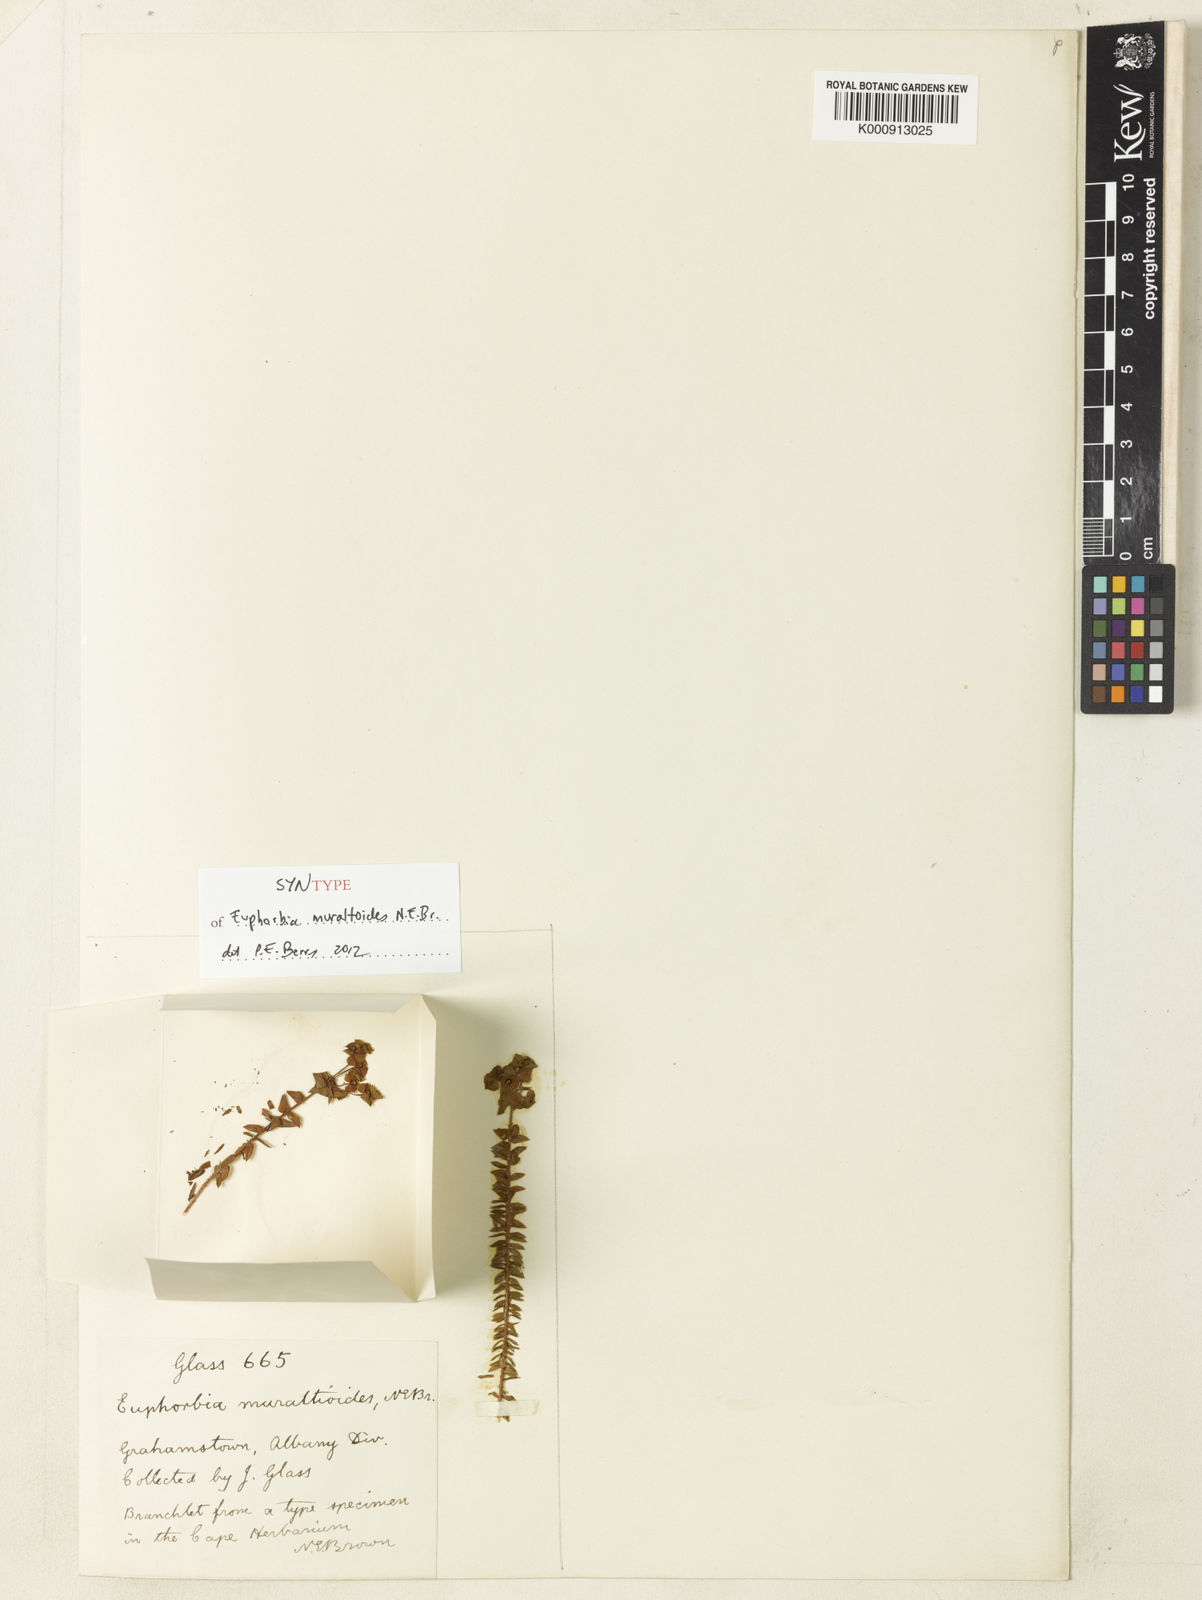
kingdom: Plantae
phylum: Tracheophyta
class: Magnoliopsida
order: Malpighiales
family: Euphorbiaceae
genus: Euphorbia
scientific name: Euphorbia muraltioides
